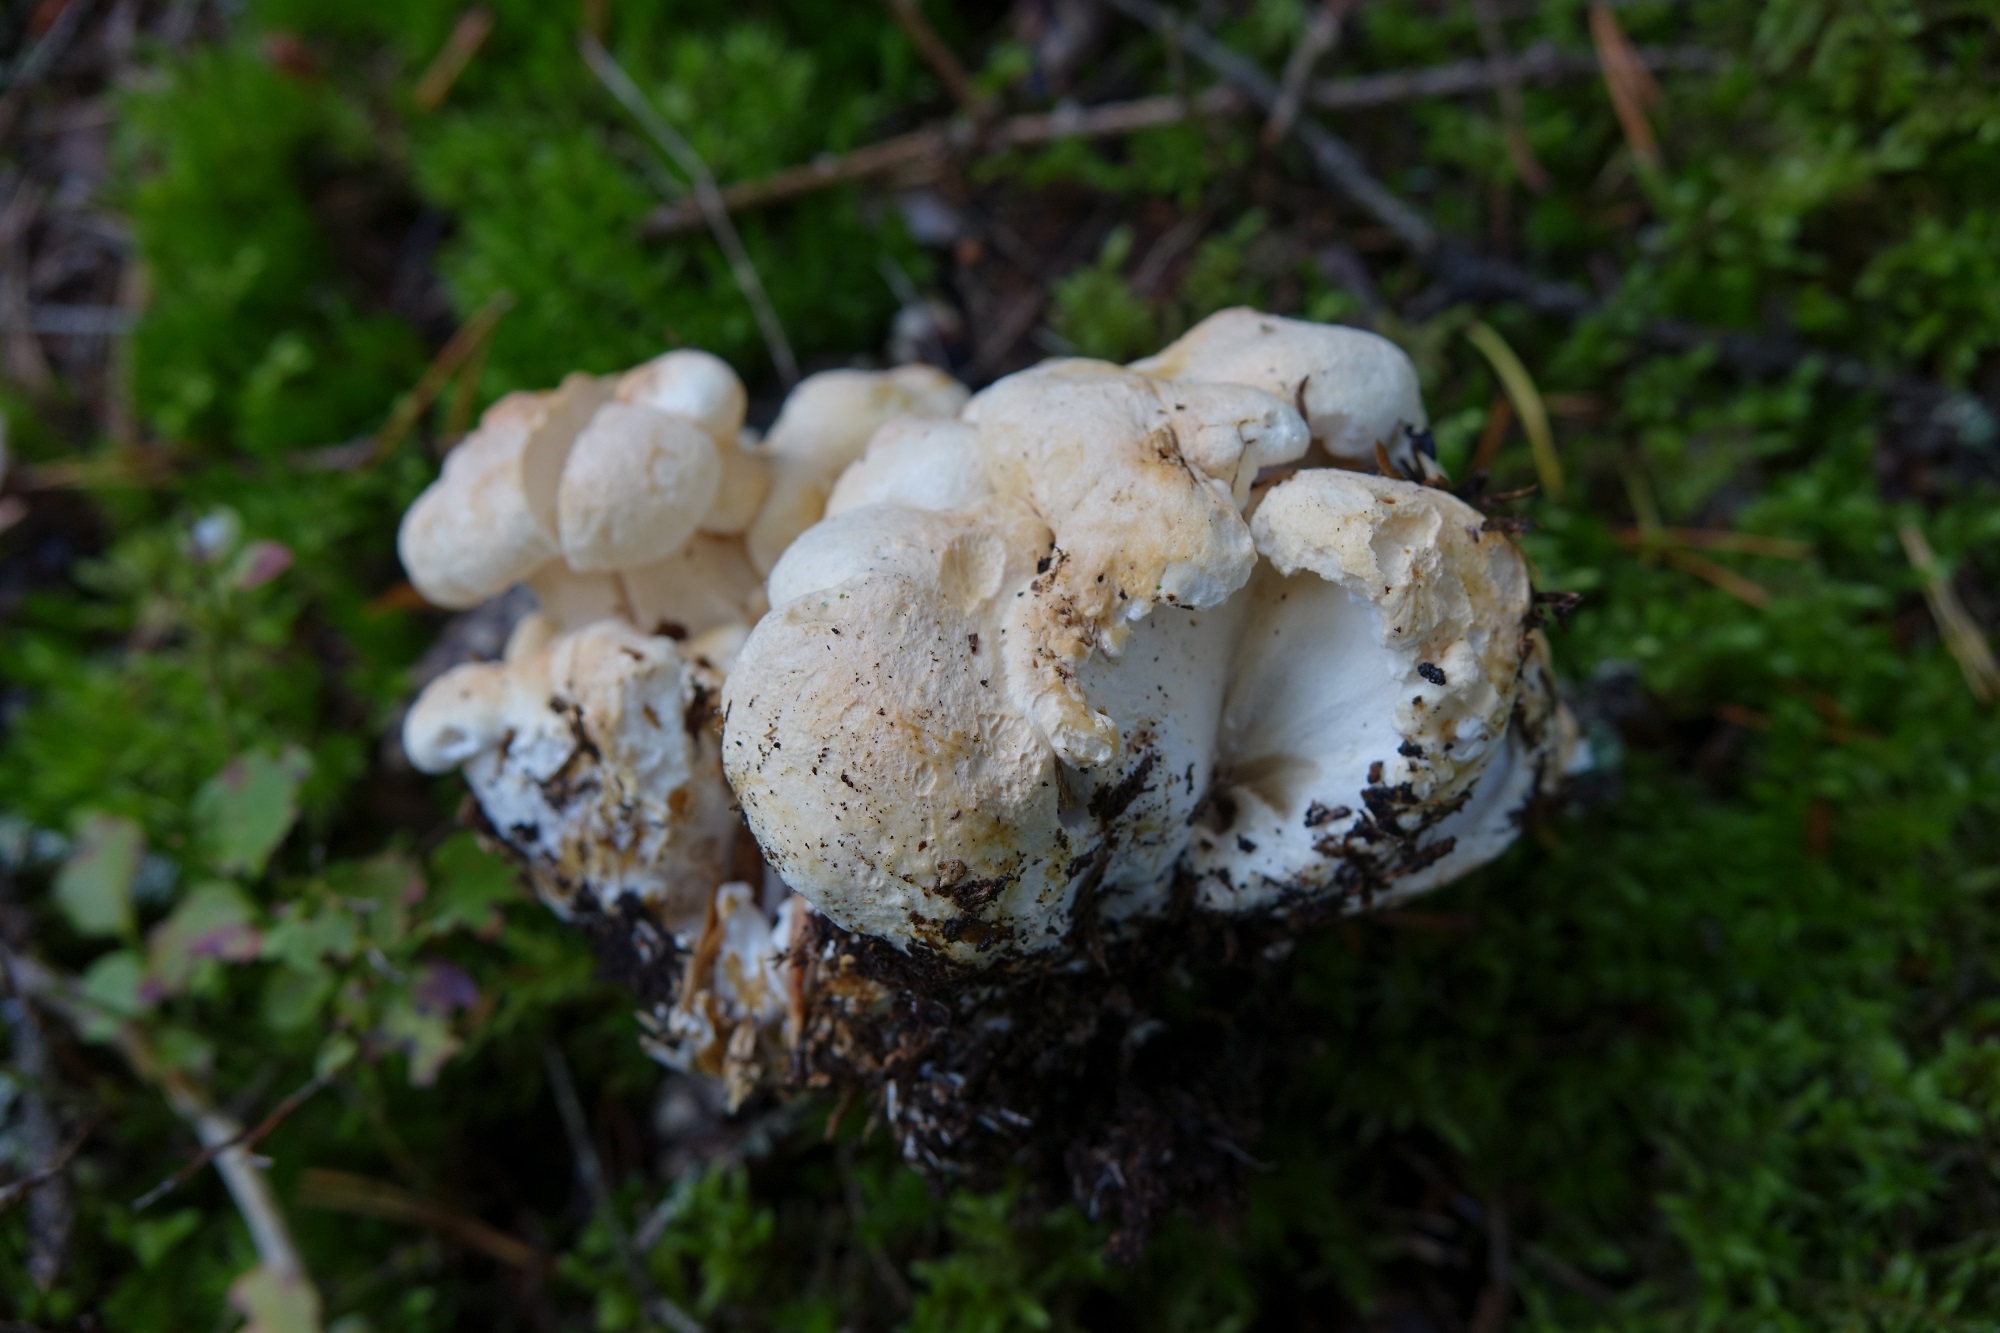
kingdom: Fungi
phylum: Basidiomycota
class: Agaricomycetes
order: Russulales
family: Albatrellaceae
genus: Albatrellopsis
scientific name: Albatrellopsis confluens
